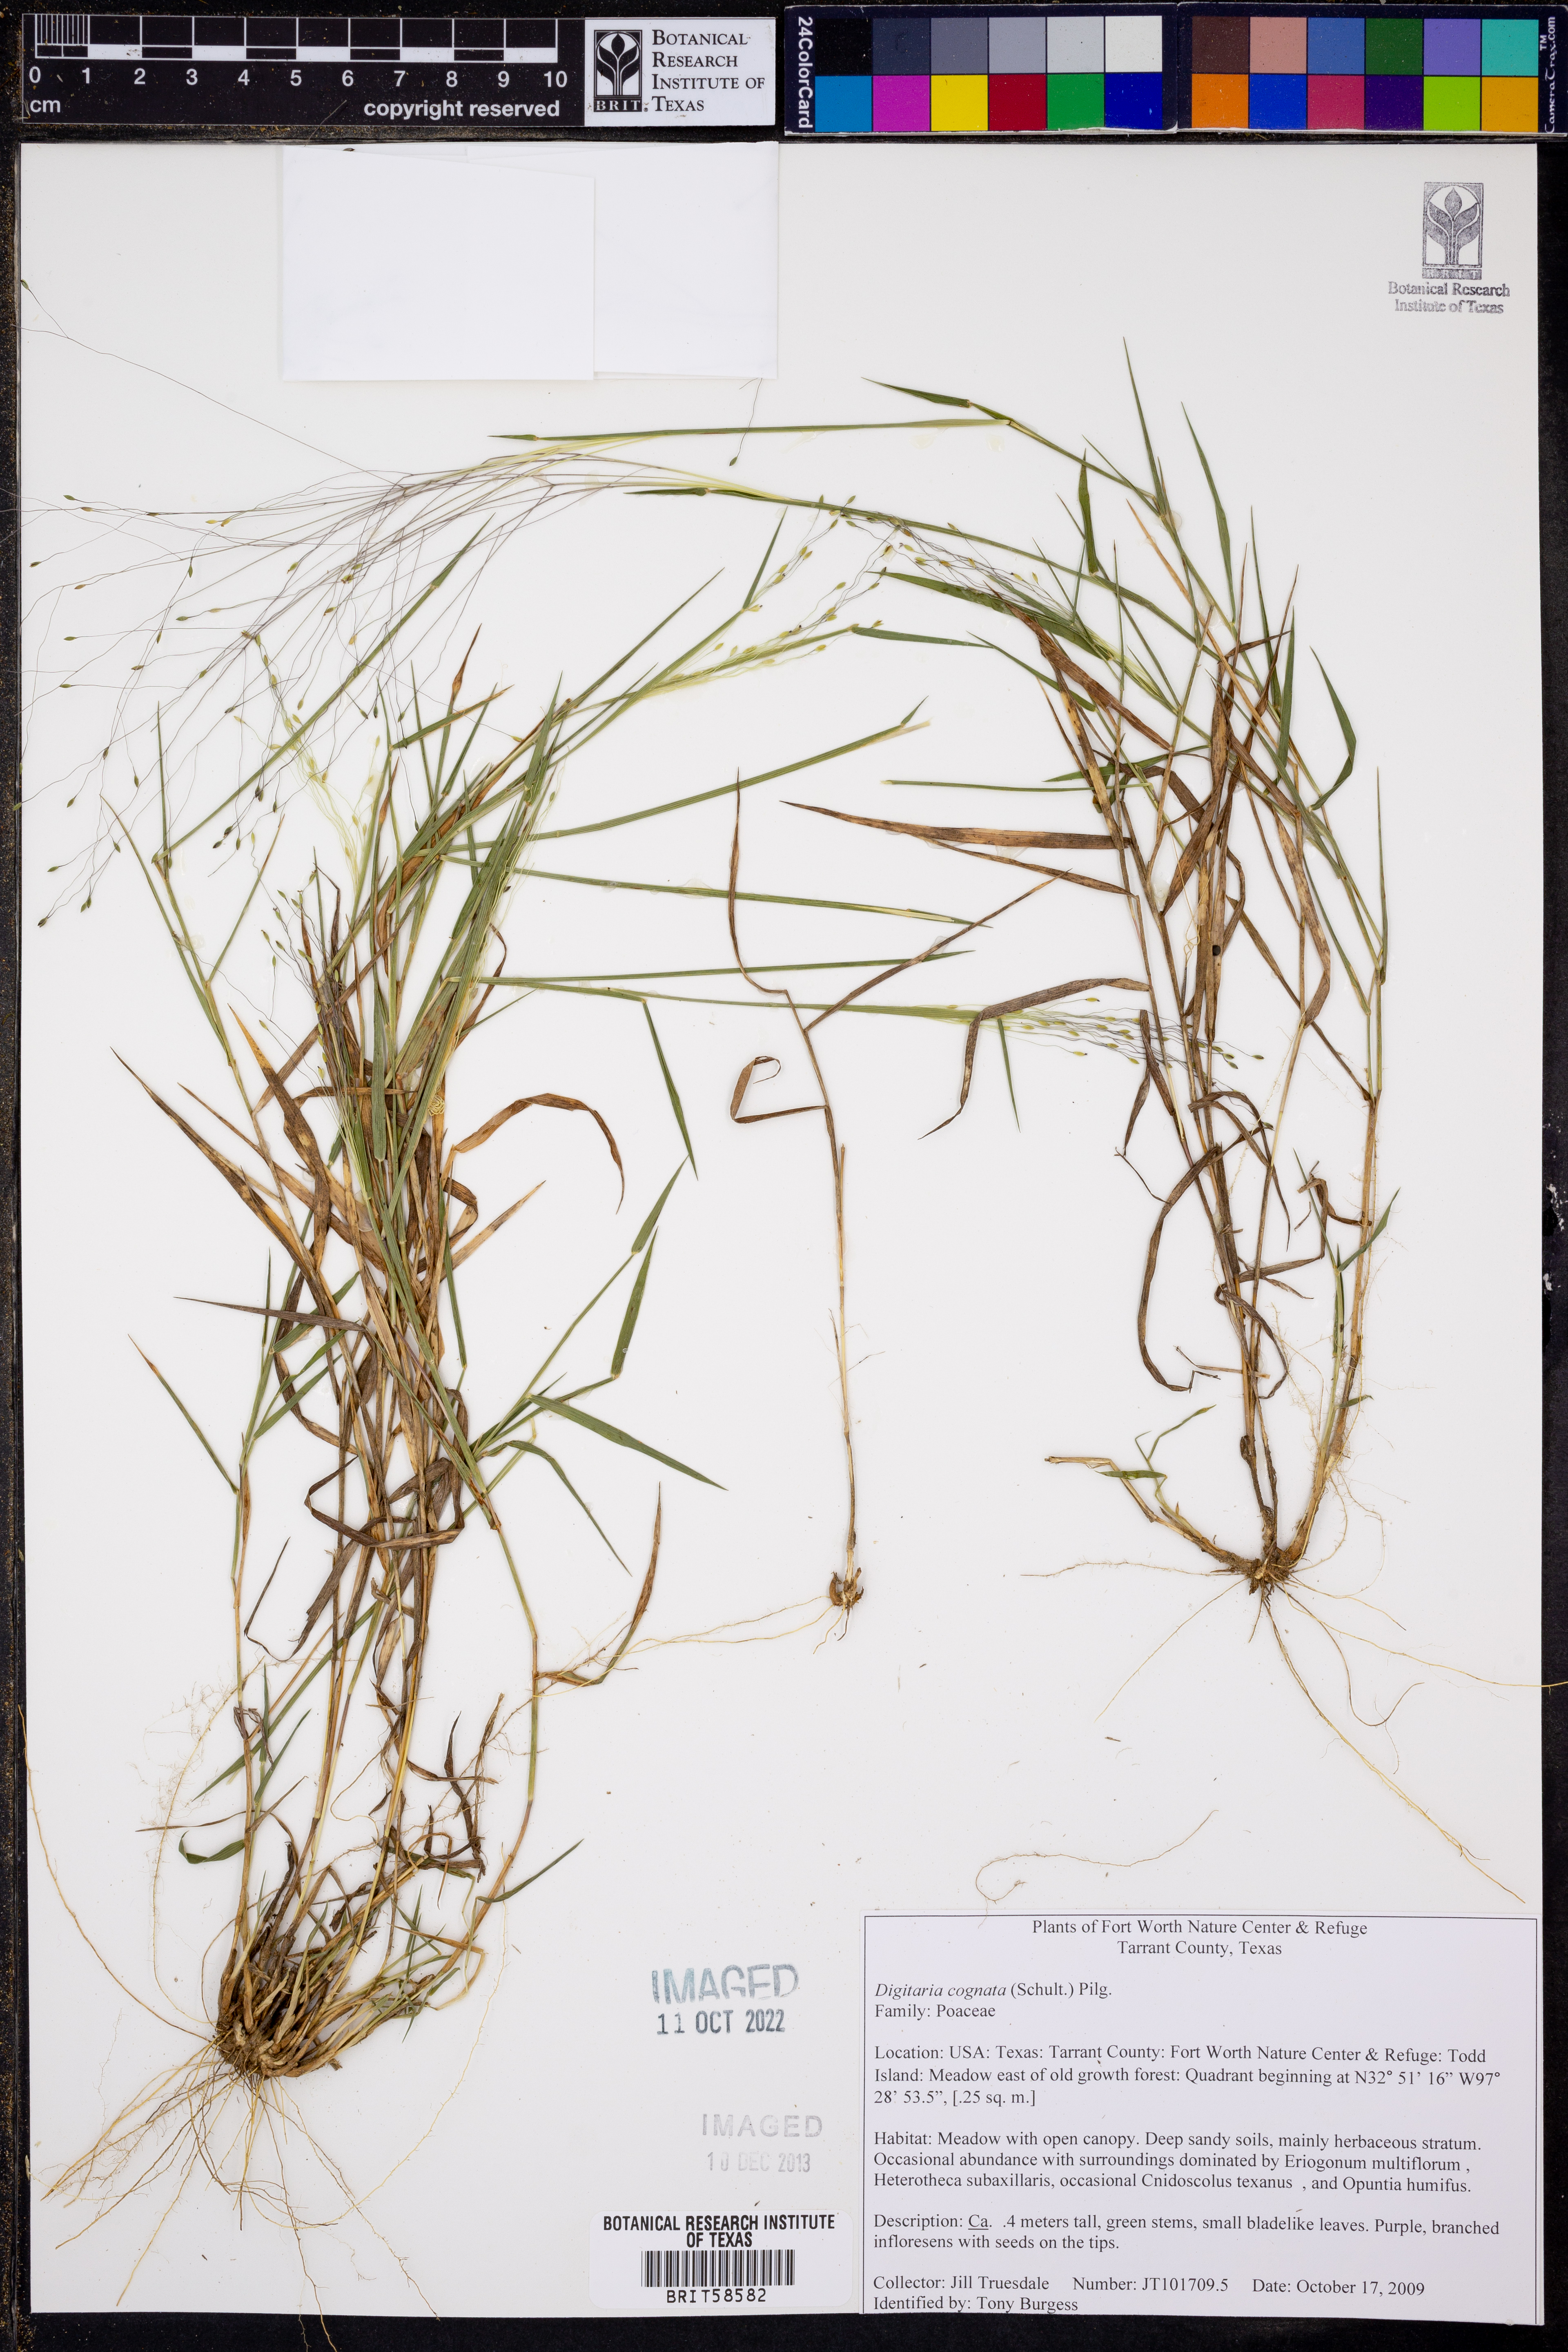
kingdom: Plantae
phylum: Tracheophyta
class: Liliopsida
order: Poales
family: Poaceae
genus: Digitaria
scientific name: Digitaria cognata
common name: Fall witchgrass
